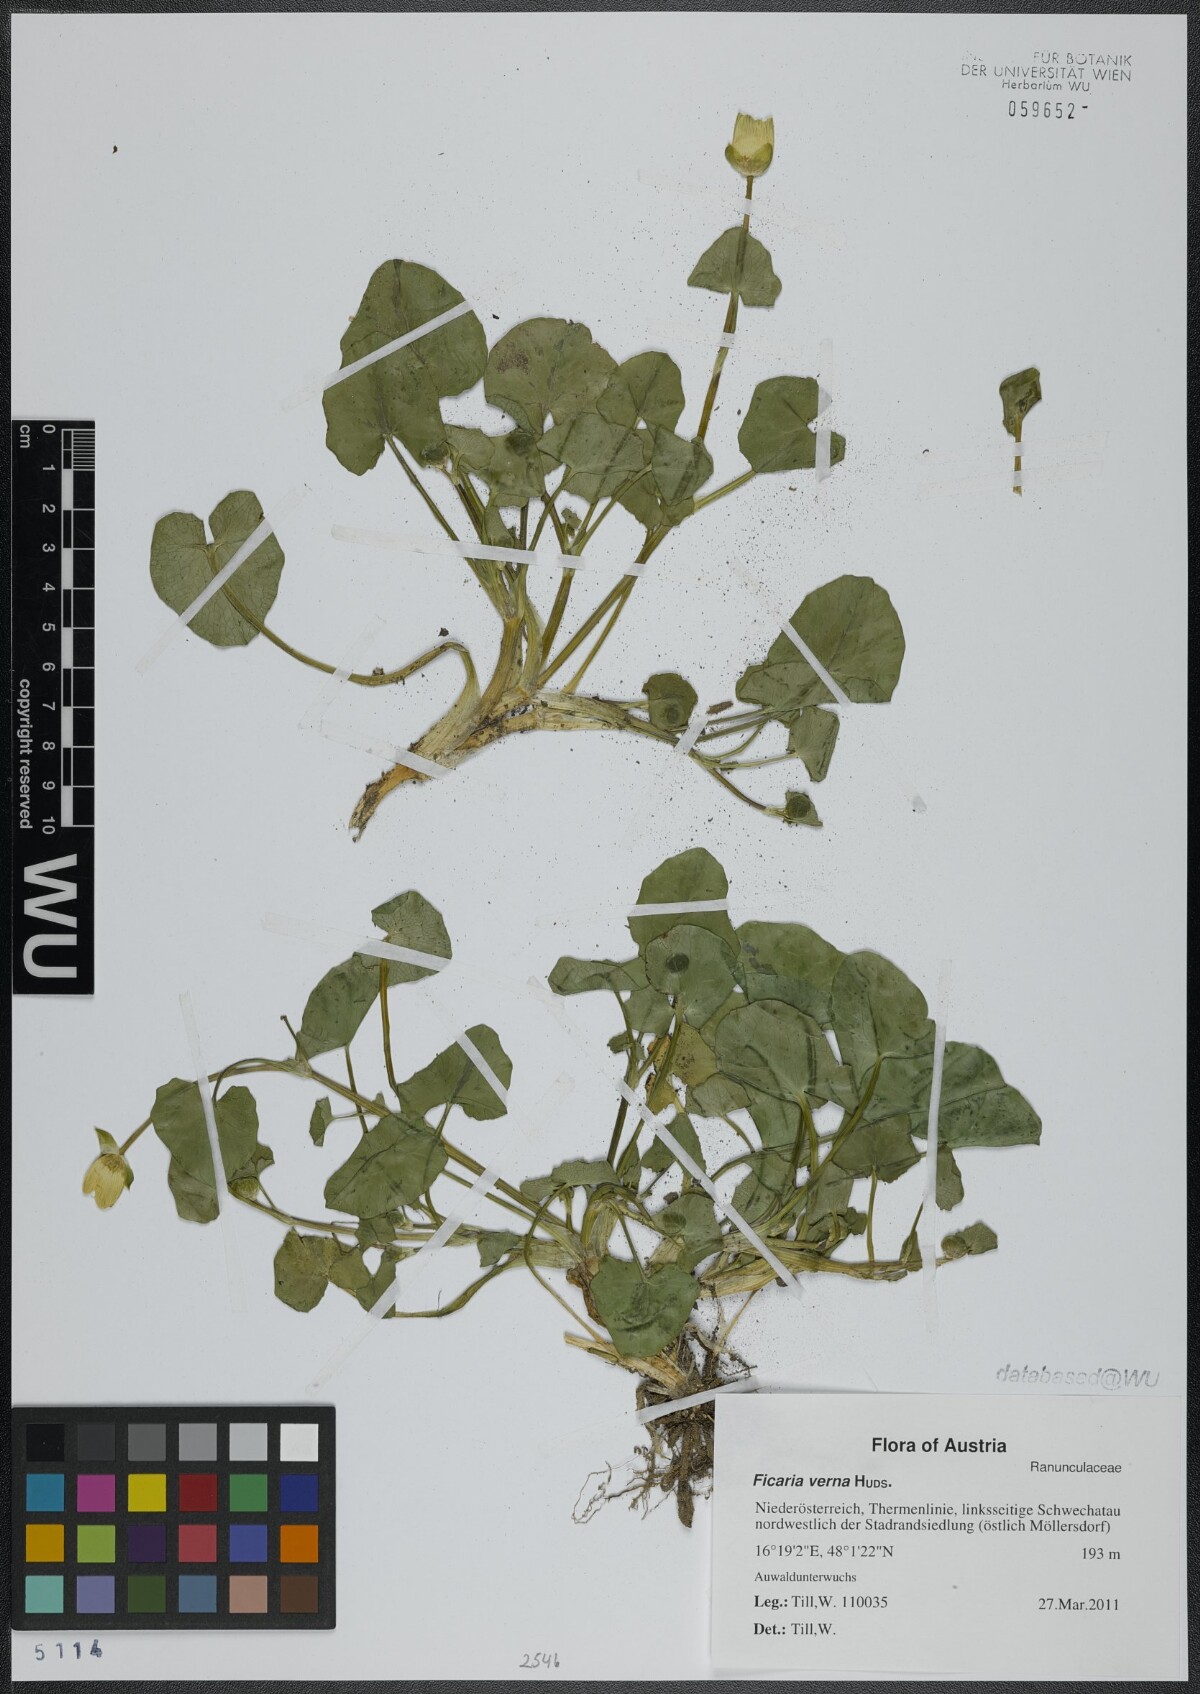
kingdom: Plantae
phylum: Tracheophyta
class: Magnoliopsida
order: Ranunculales
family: Ranunculaceae
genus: Ficaria
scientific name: Ficaria verna
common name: Lesser celandine
